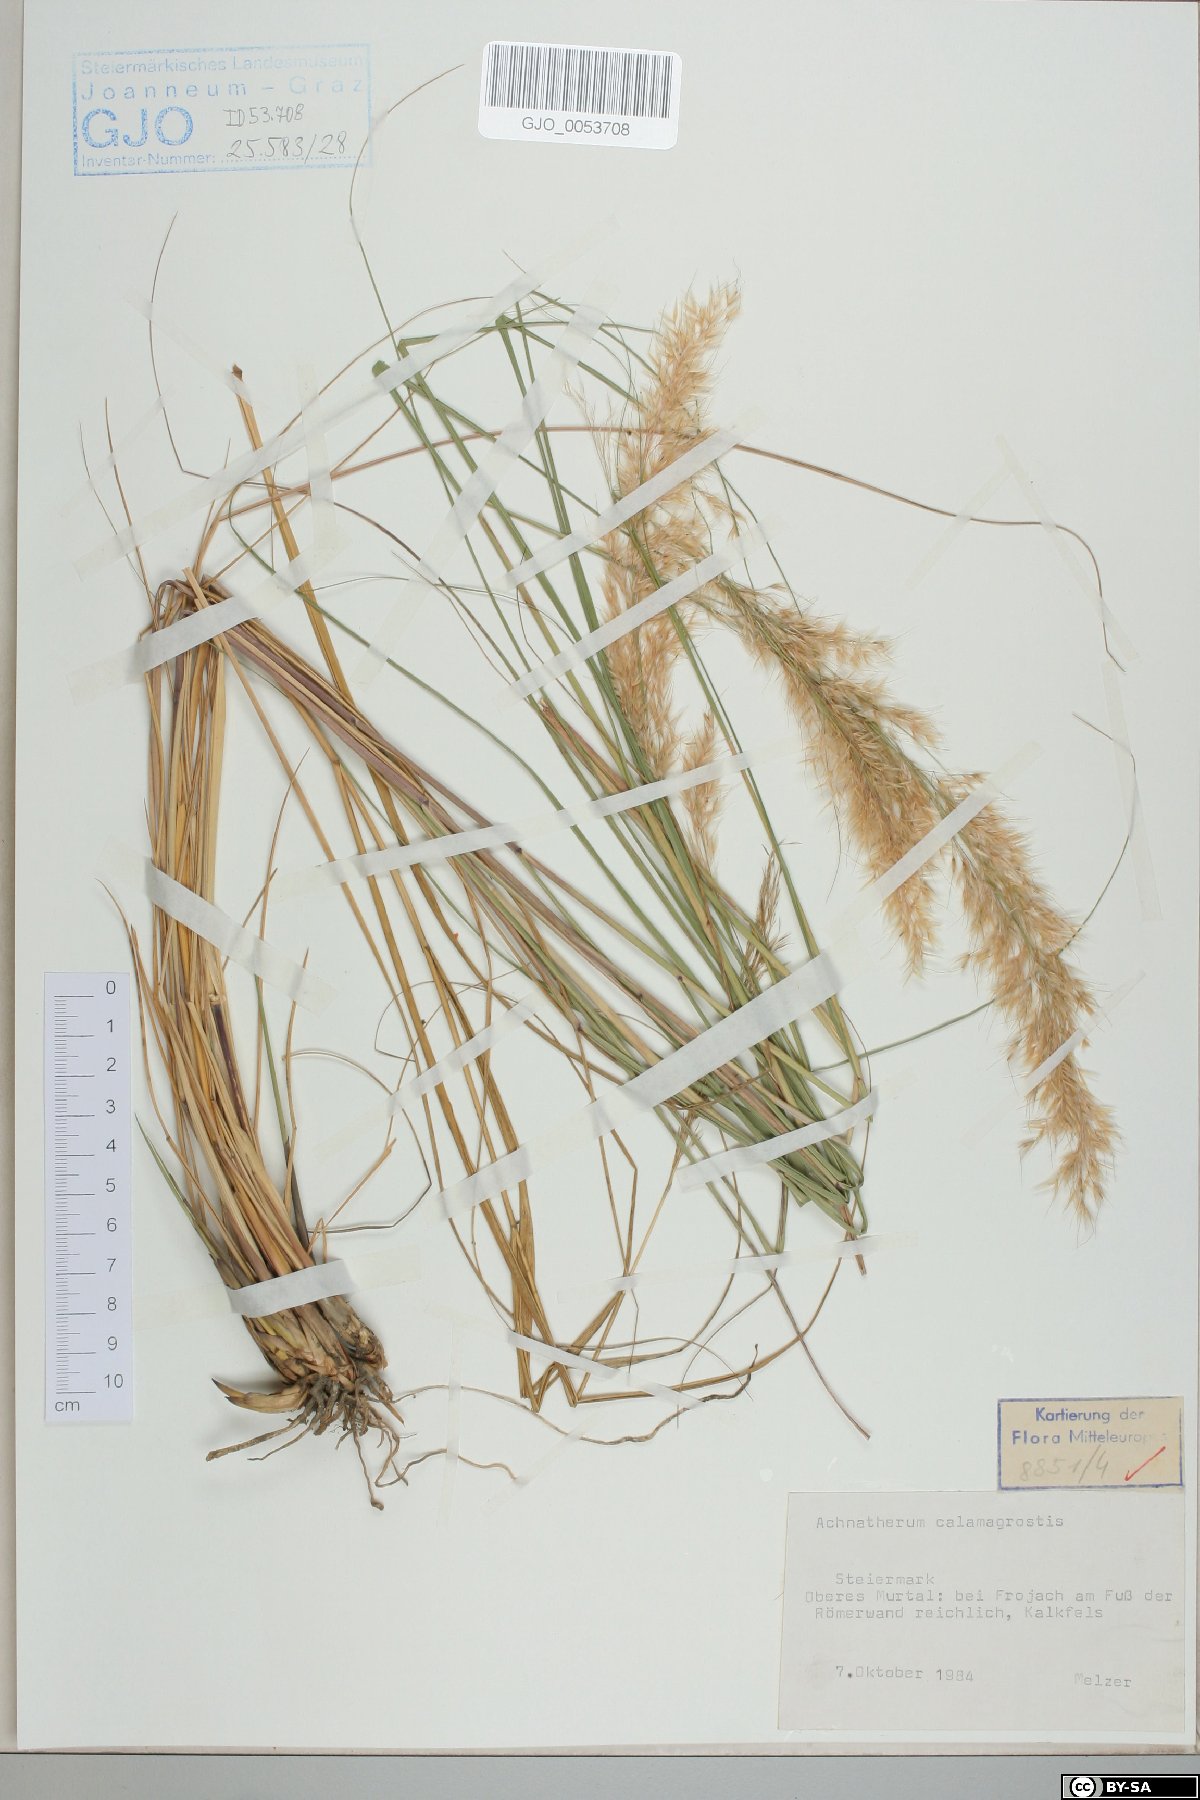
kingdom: Plantae
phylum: Tracheophyta
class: Liliopsida
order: Poales
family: Poaceae
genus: Achnatherum
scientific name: Achnatherum calamagrostis
